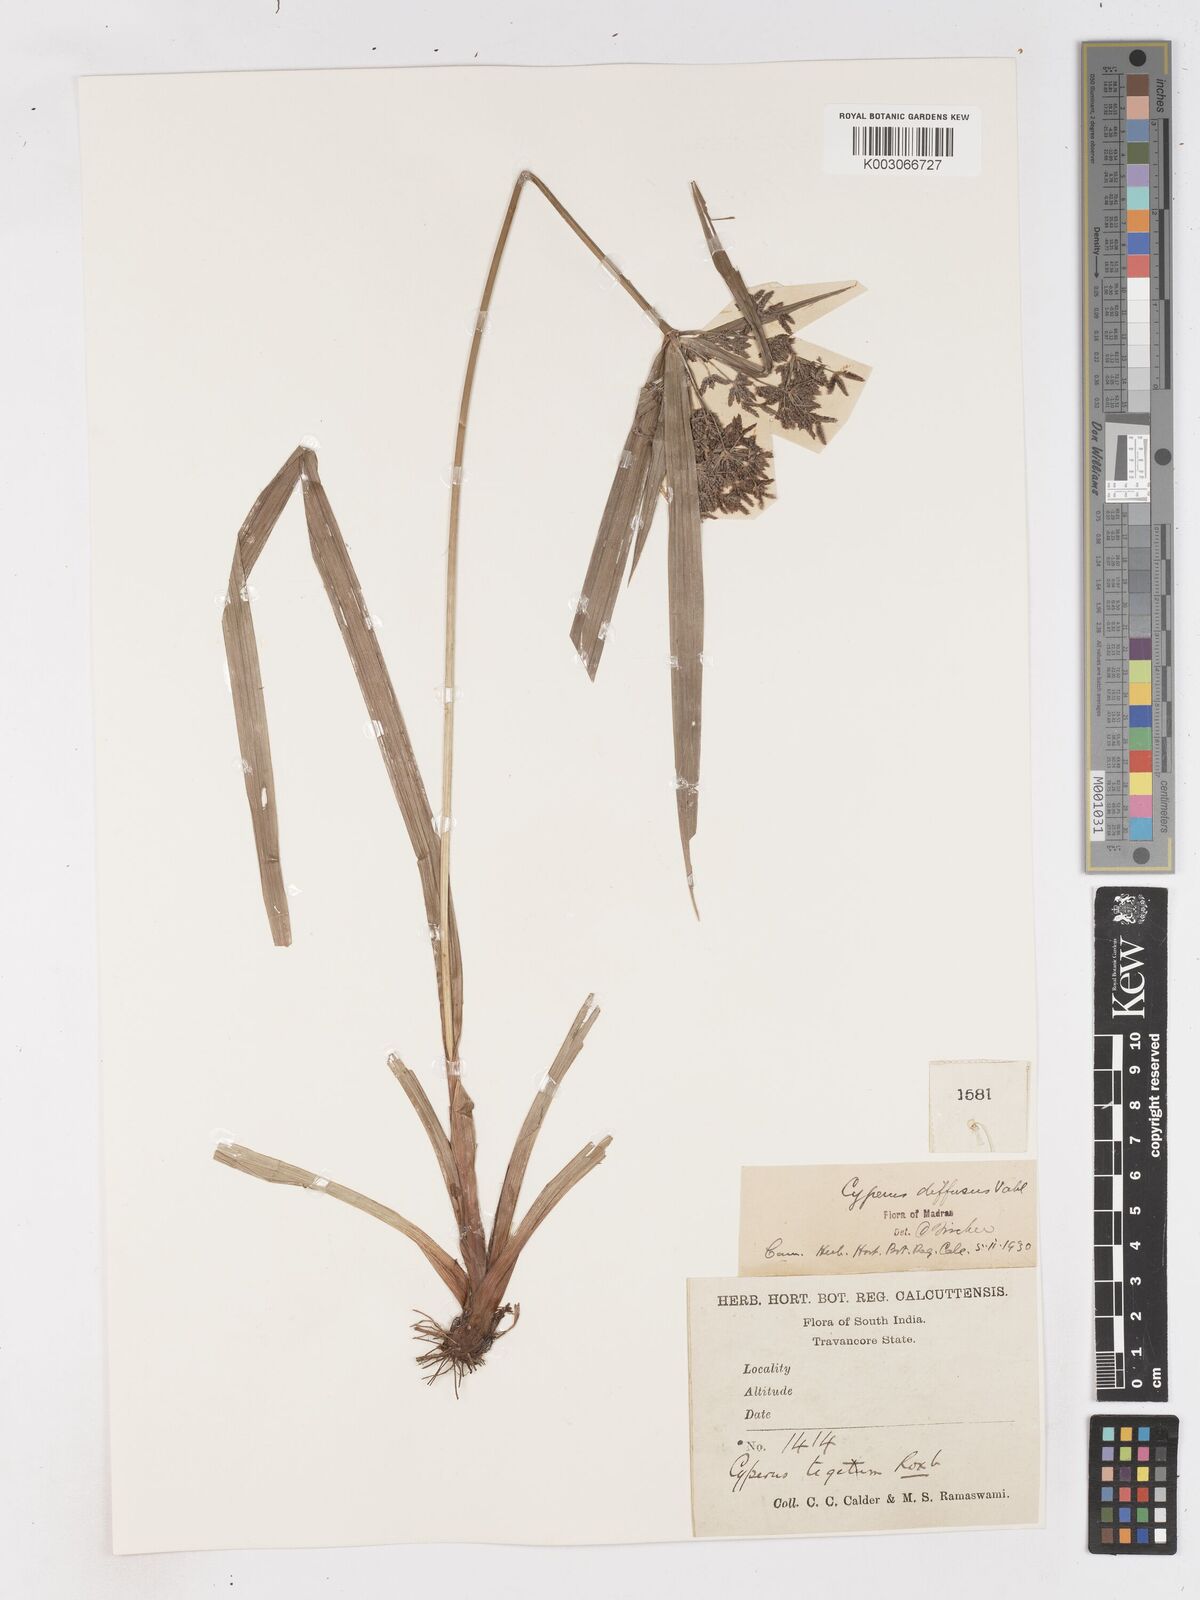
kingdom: Plantae
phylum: Tracheophyta
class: Liliopsida
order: Poales
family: Cyperaceae
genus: Cyperus
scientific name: Cyperus diffusus
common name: Dwarf umbrella grass
